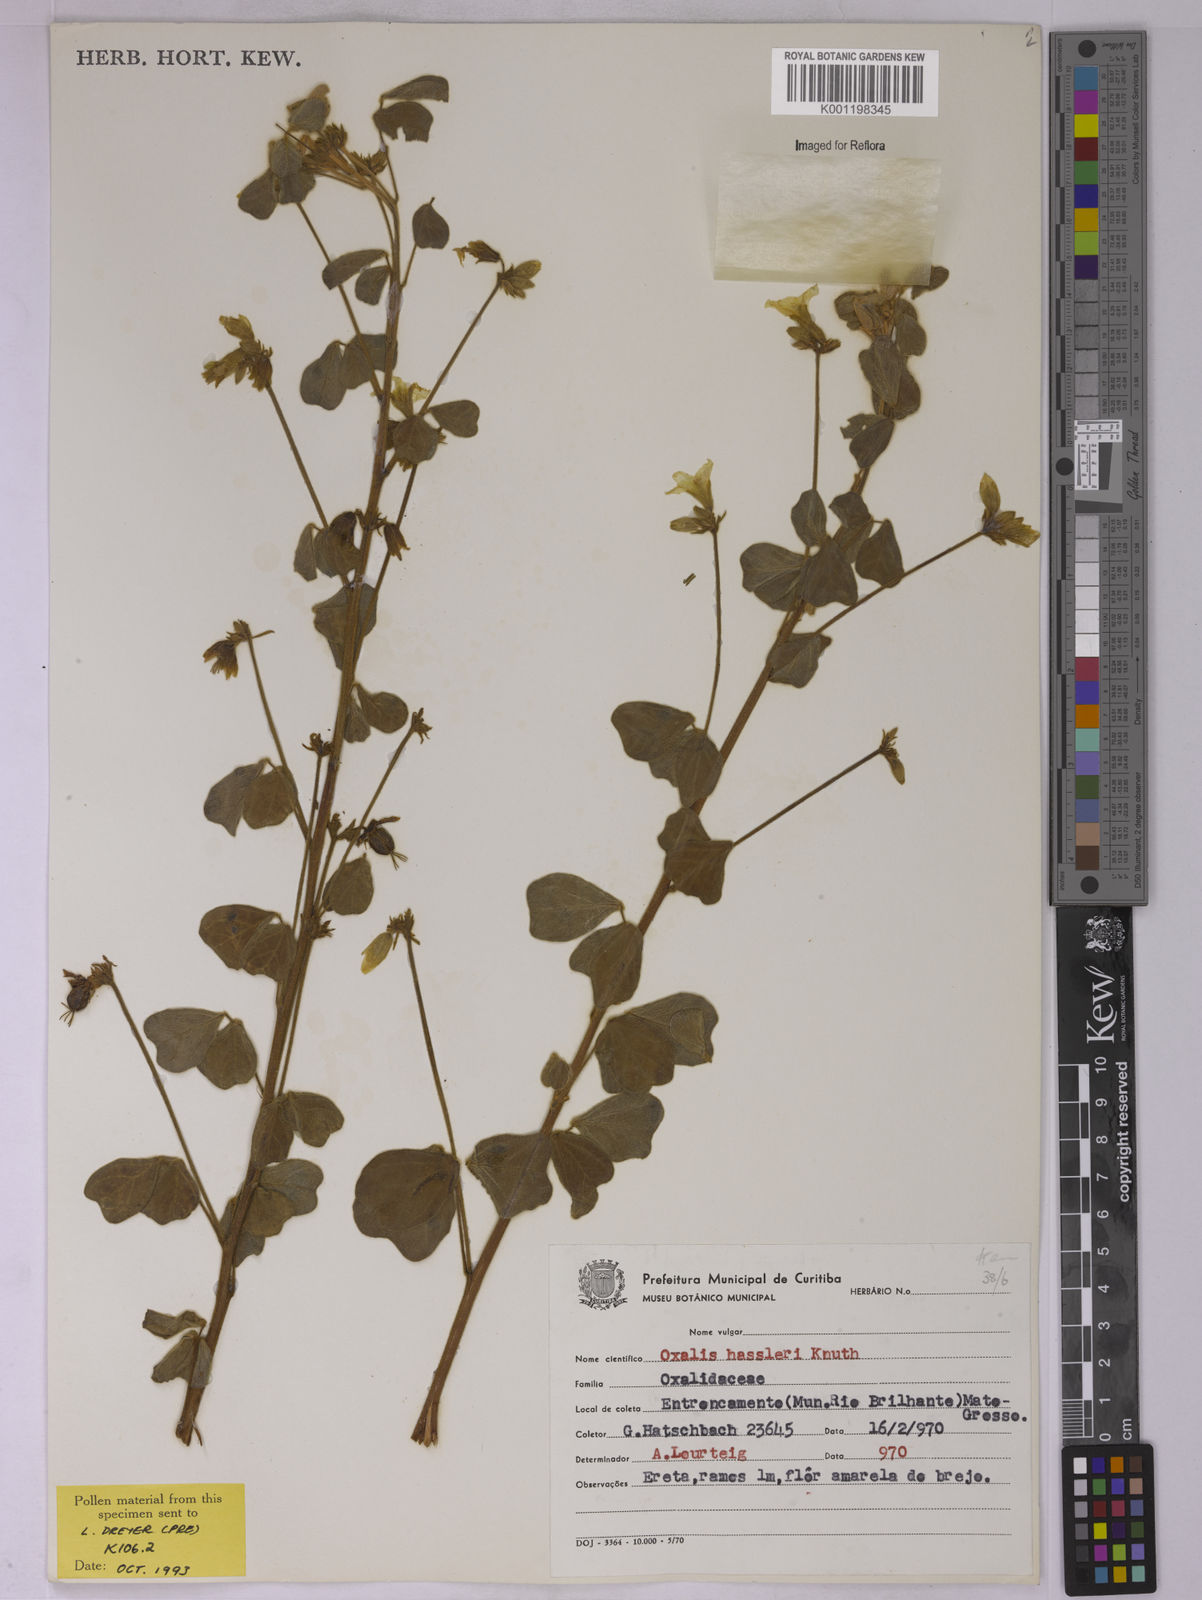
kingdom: Plantae
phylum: Tracheophyta
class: Magnoliopsida
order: Oxalidales
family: Oxalidaceae
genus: Oxalis
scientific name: Oxalis grisea
